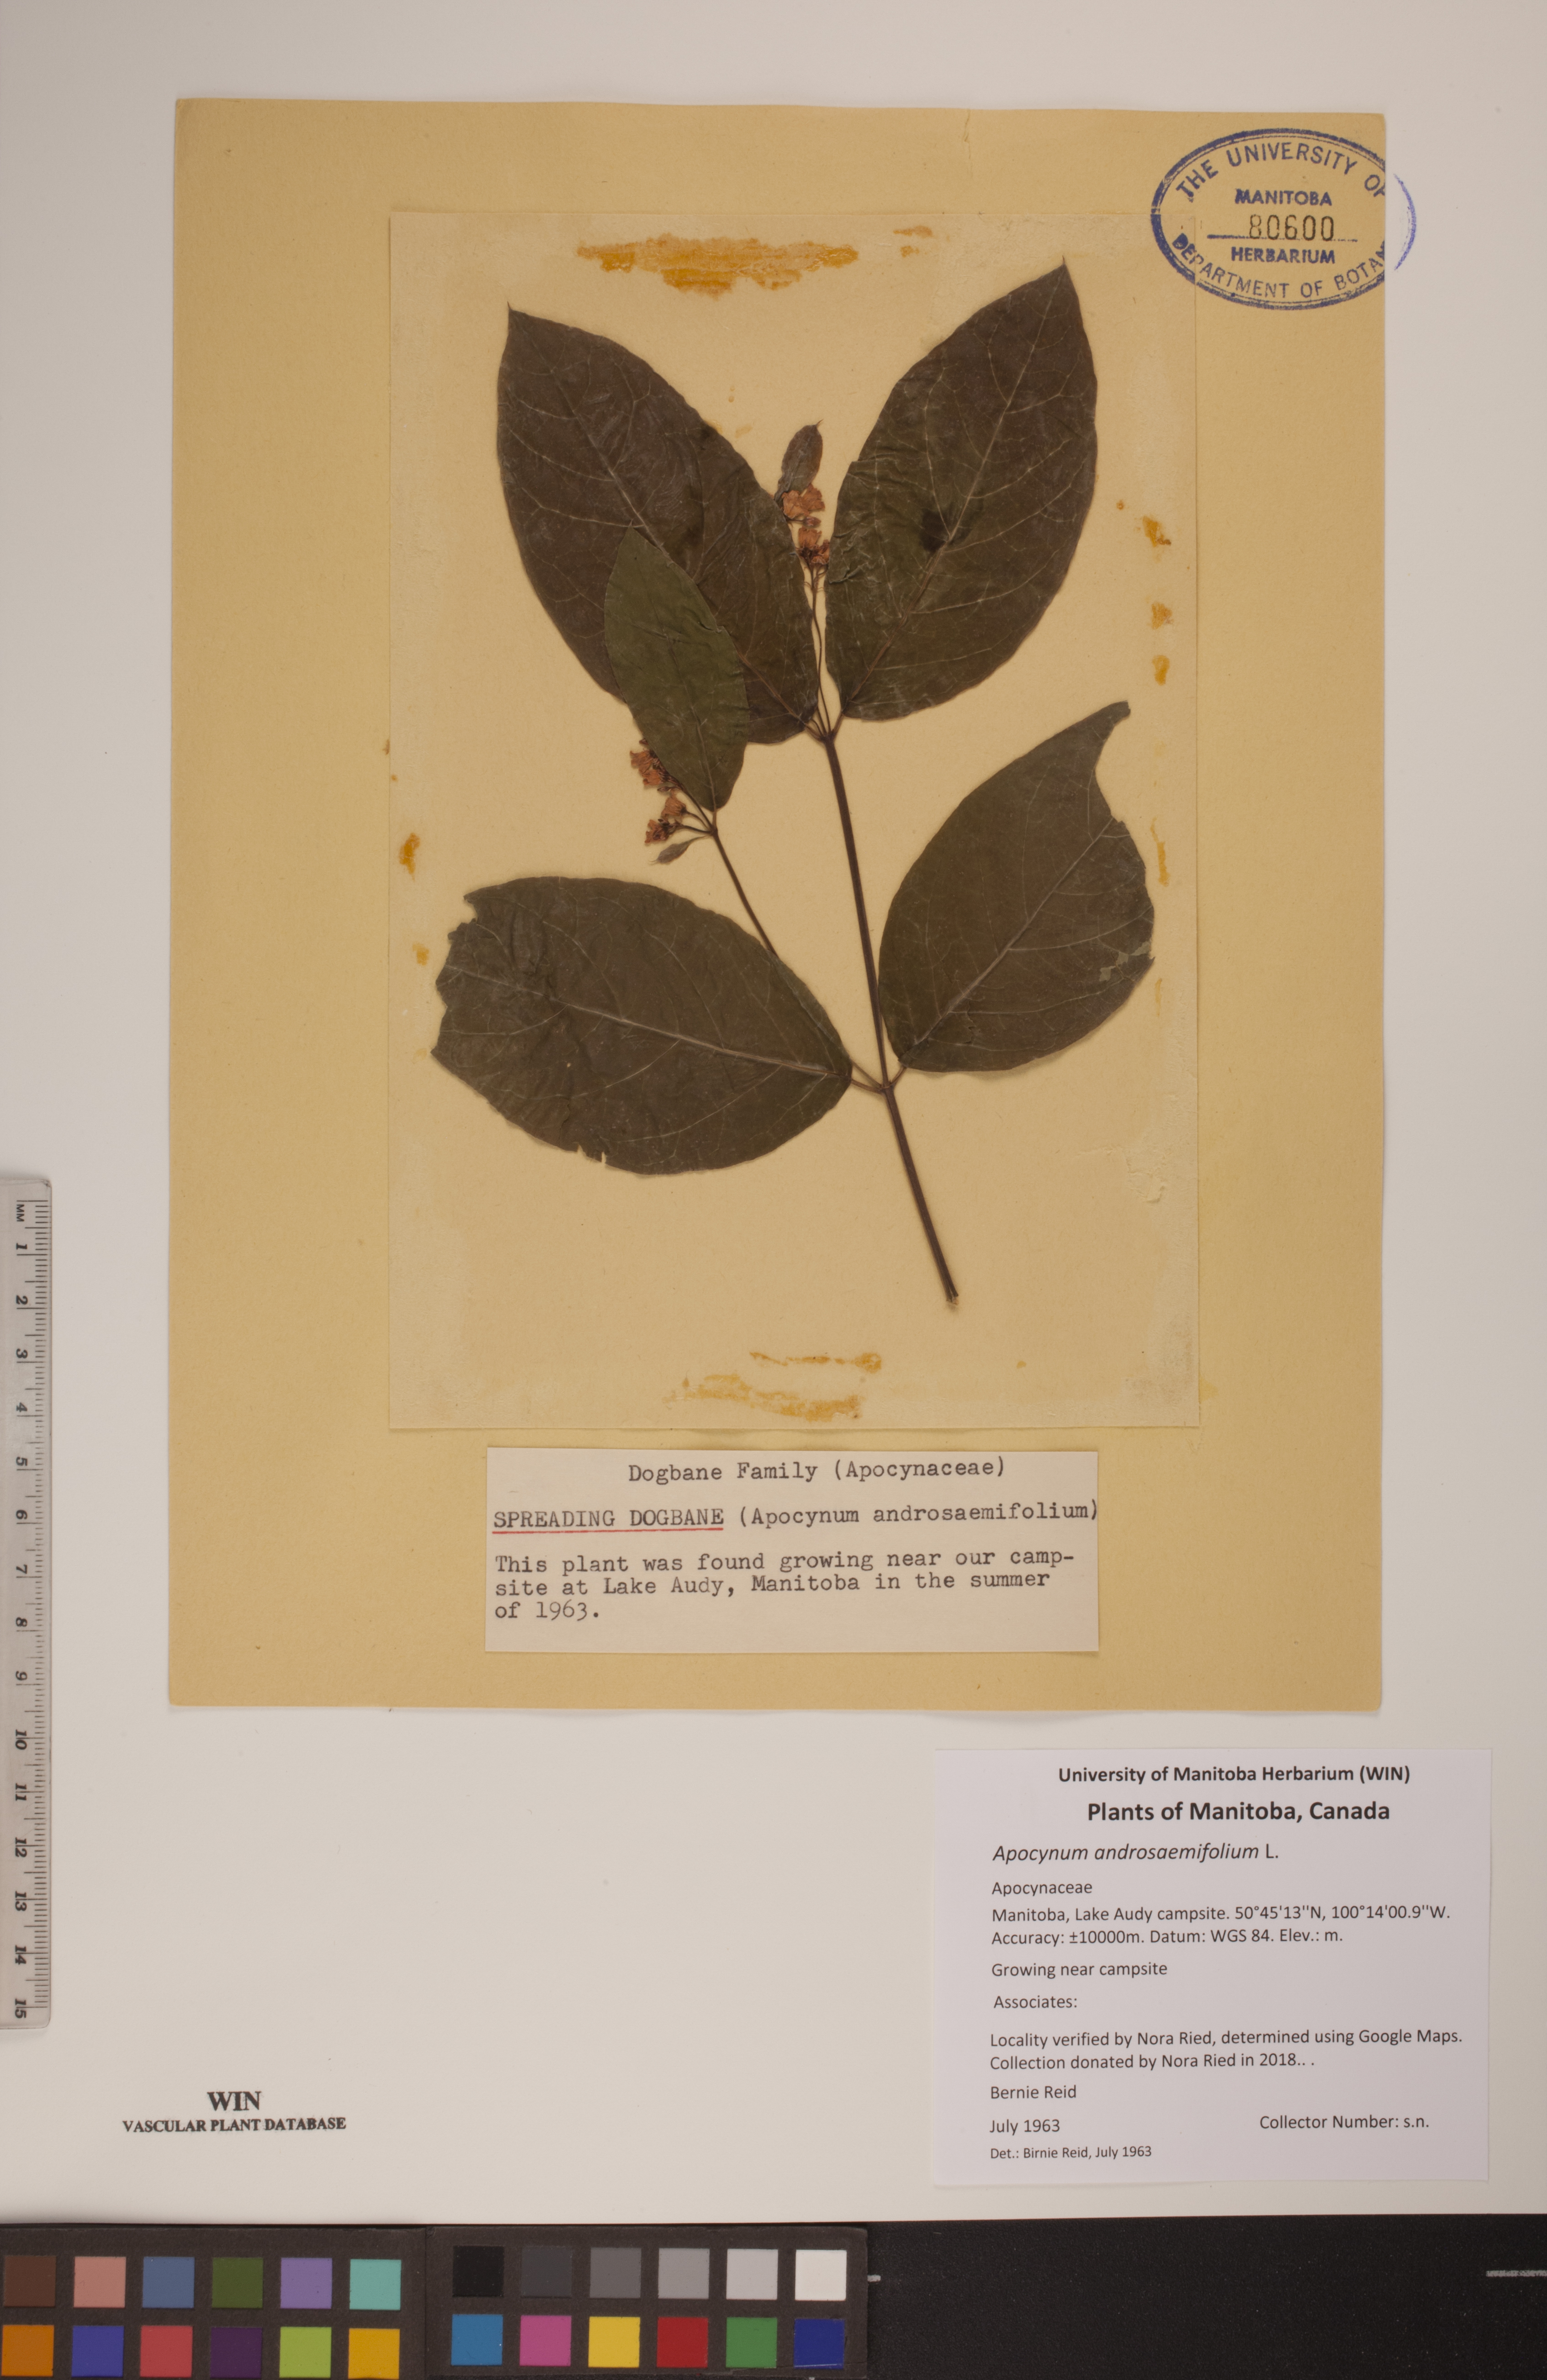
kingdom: Plantae
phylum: Tracheophyta
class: Magnoliopsida
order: Gentianales
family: Apocynaceae
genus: Apocynum
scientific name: Apocynum androsaemifolium
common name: Spreading dogbane
